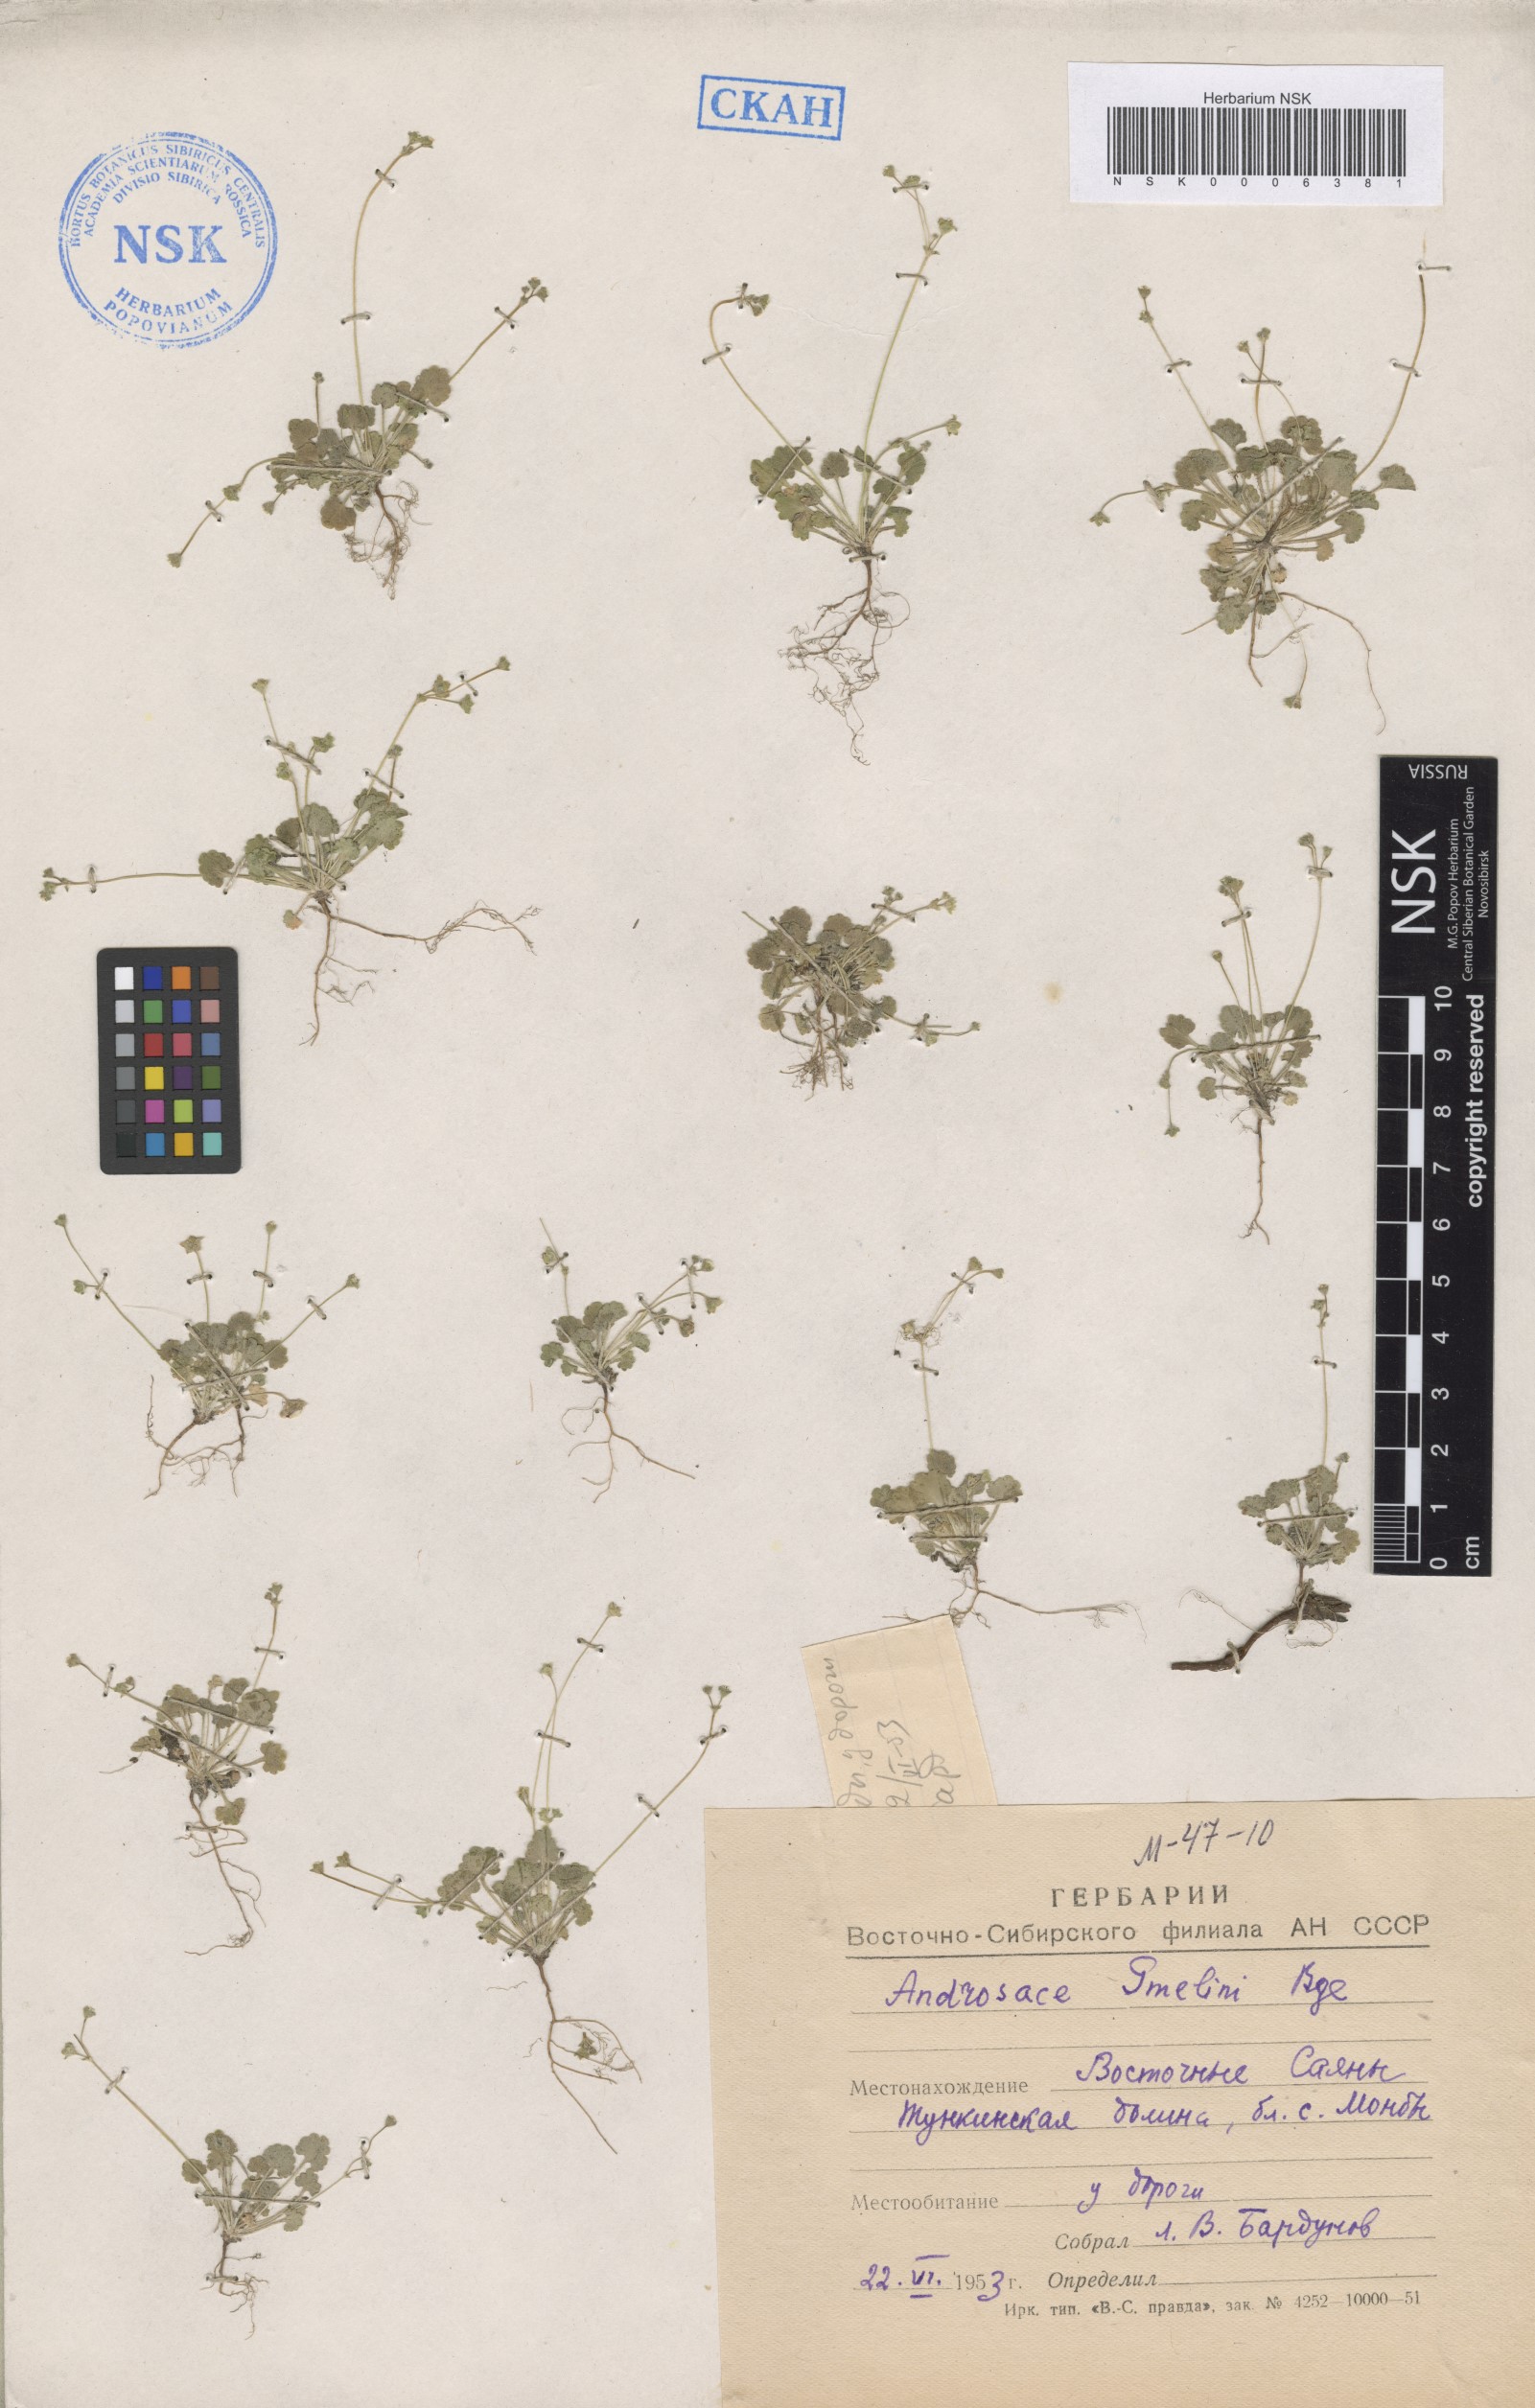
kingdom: Plantae
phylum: Tracheophyta
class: Magnoliopsida
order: Ericales
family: Primulaceae
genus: Androsace
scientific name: Androsace gmelinii
